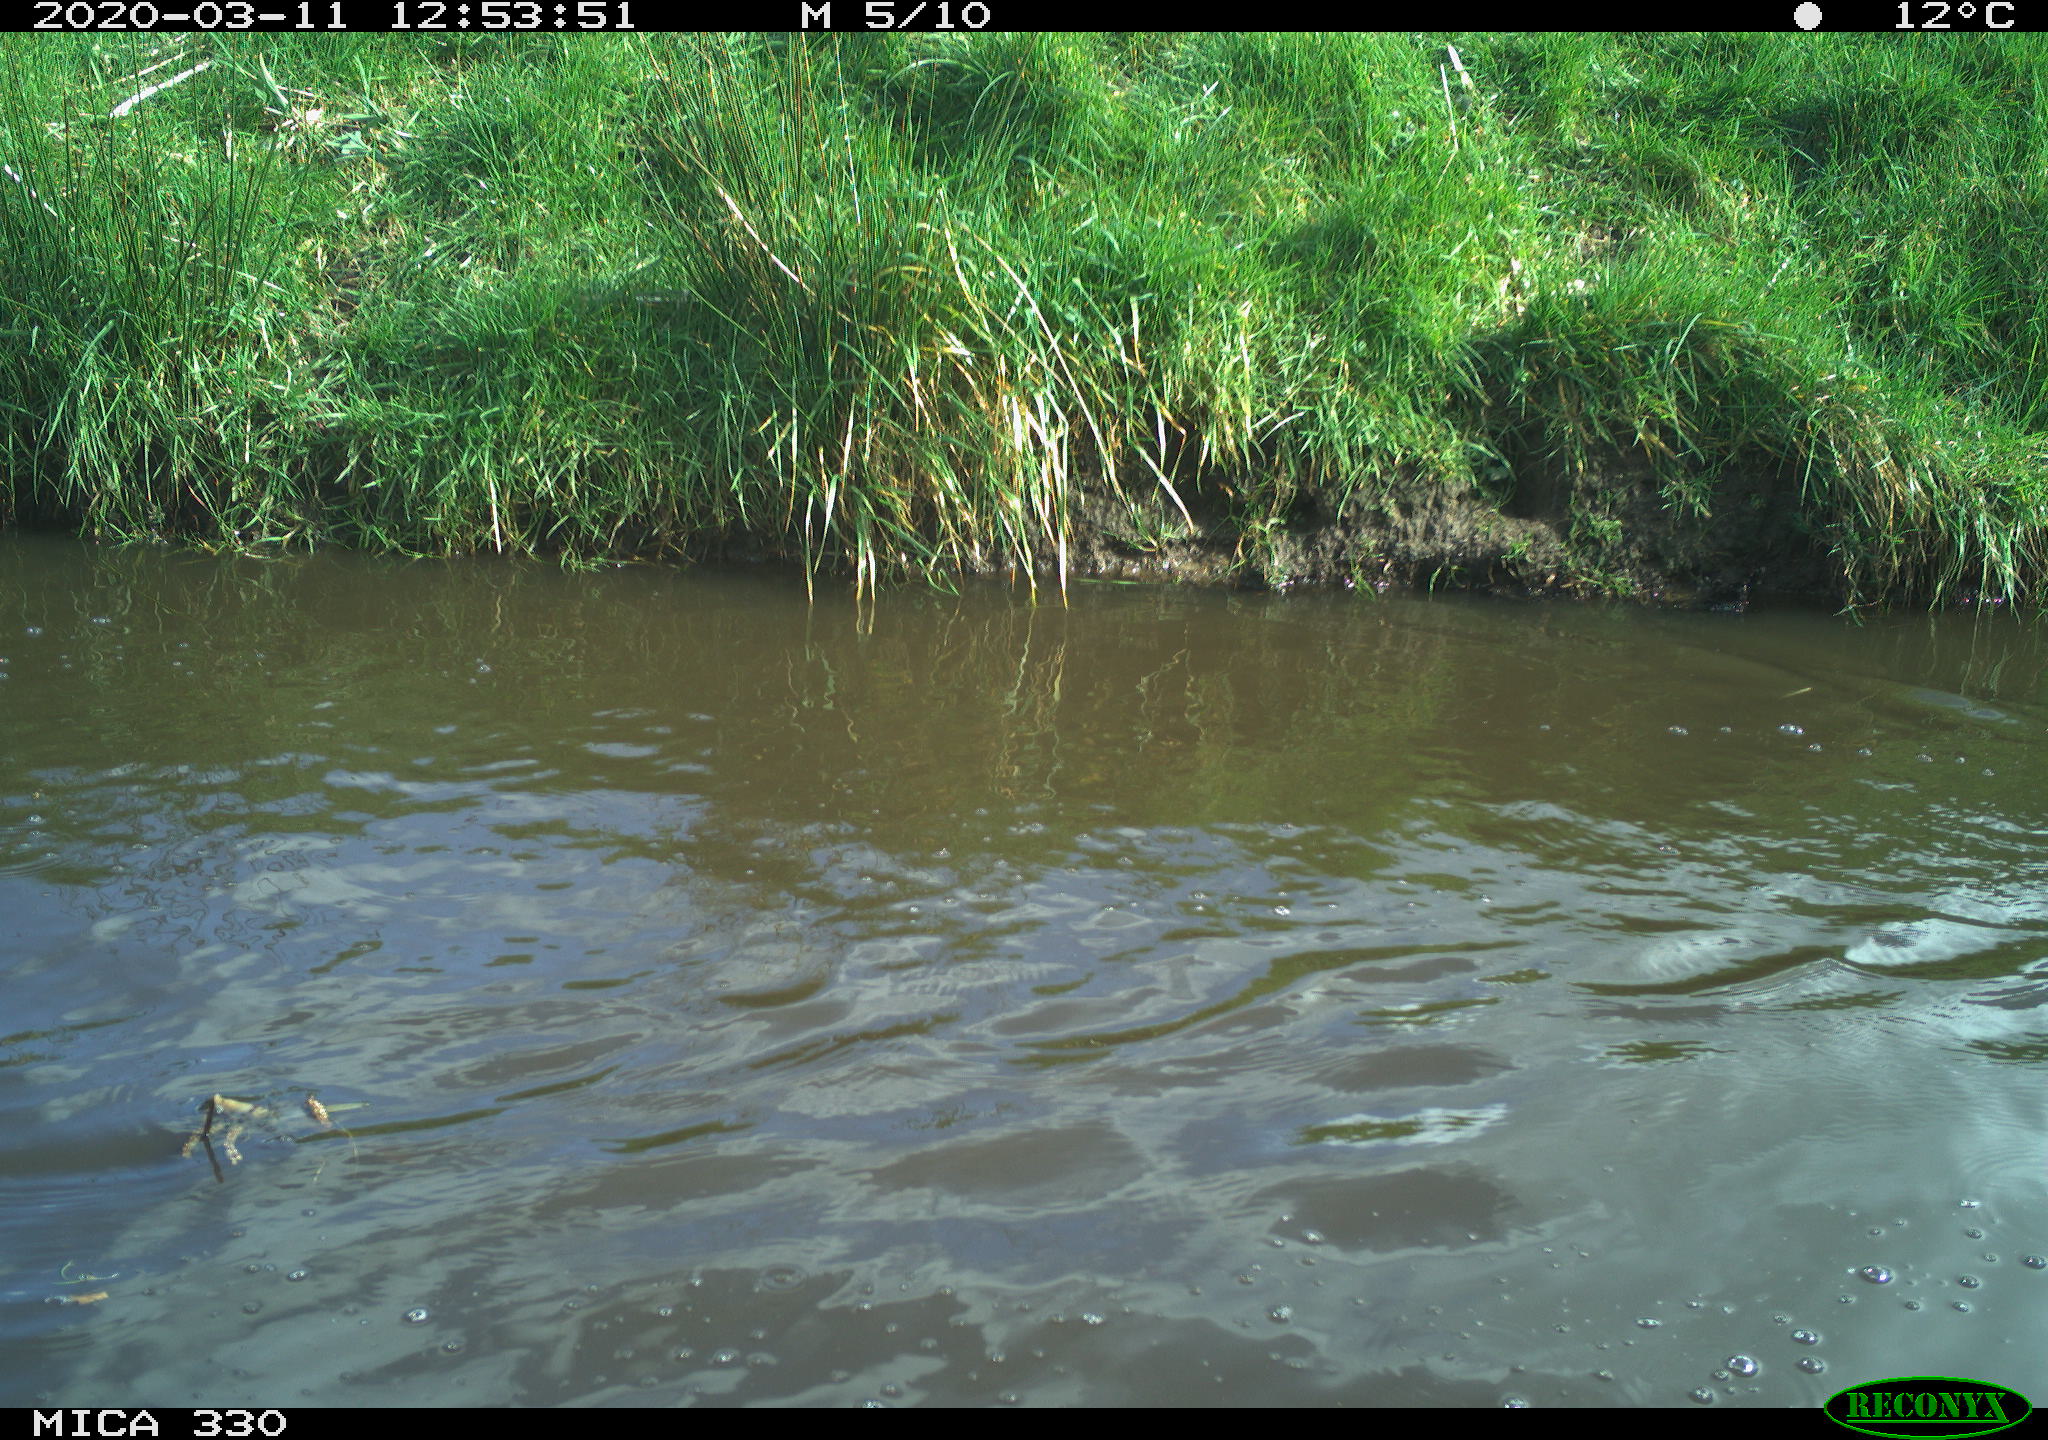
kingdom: Animalia
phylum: Chordata
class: Aves
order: Anseriformes
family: Anatidae
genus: Anas
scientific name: Anas platyrhynchos
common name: Mallard
